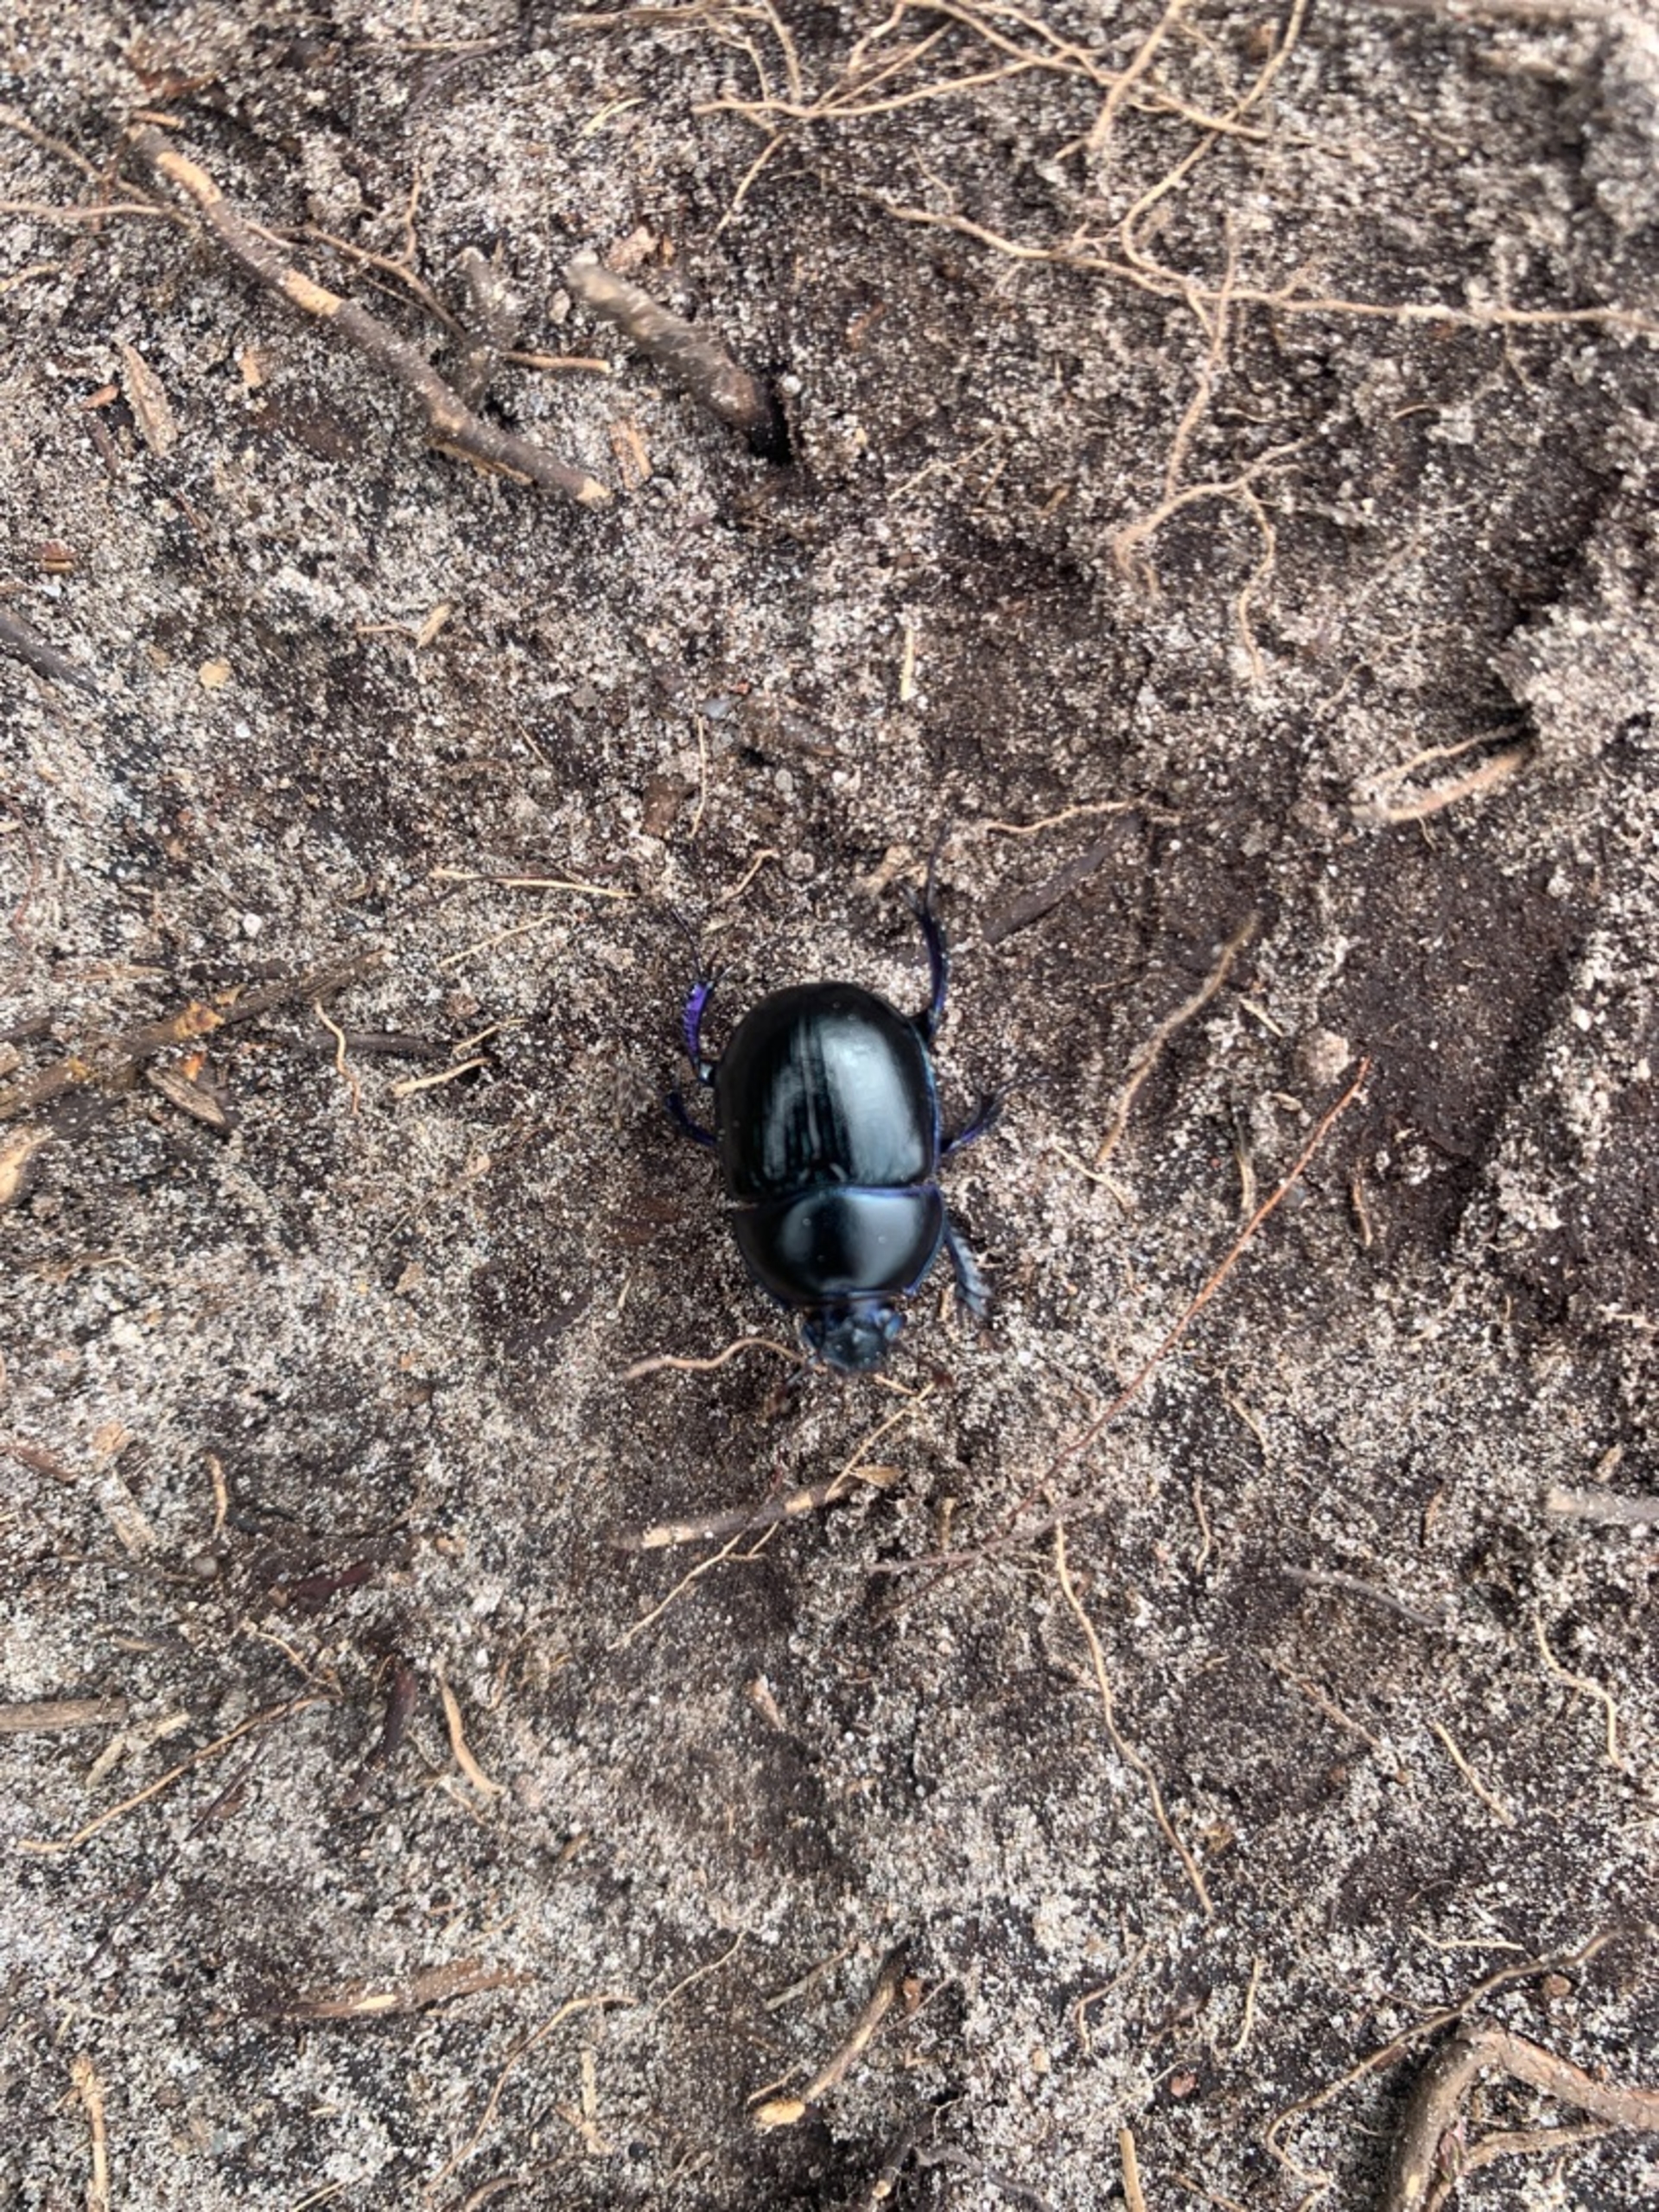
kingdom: Animalia
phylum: Arthropoda
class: Insecta
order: Coleoptera
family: Geotrupidae
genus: Anoplotrupes
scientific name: Anoplotrupes stercorosus
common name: Skovskarnbasse
